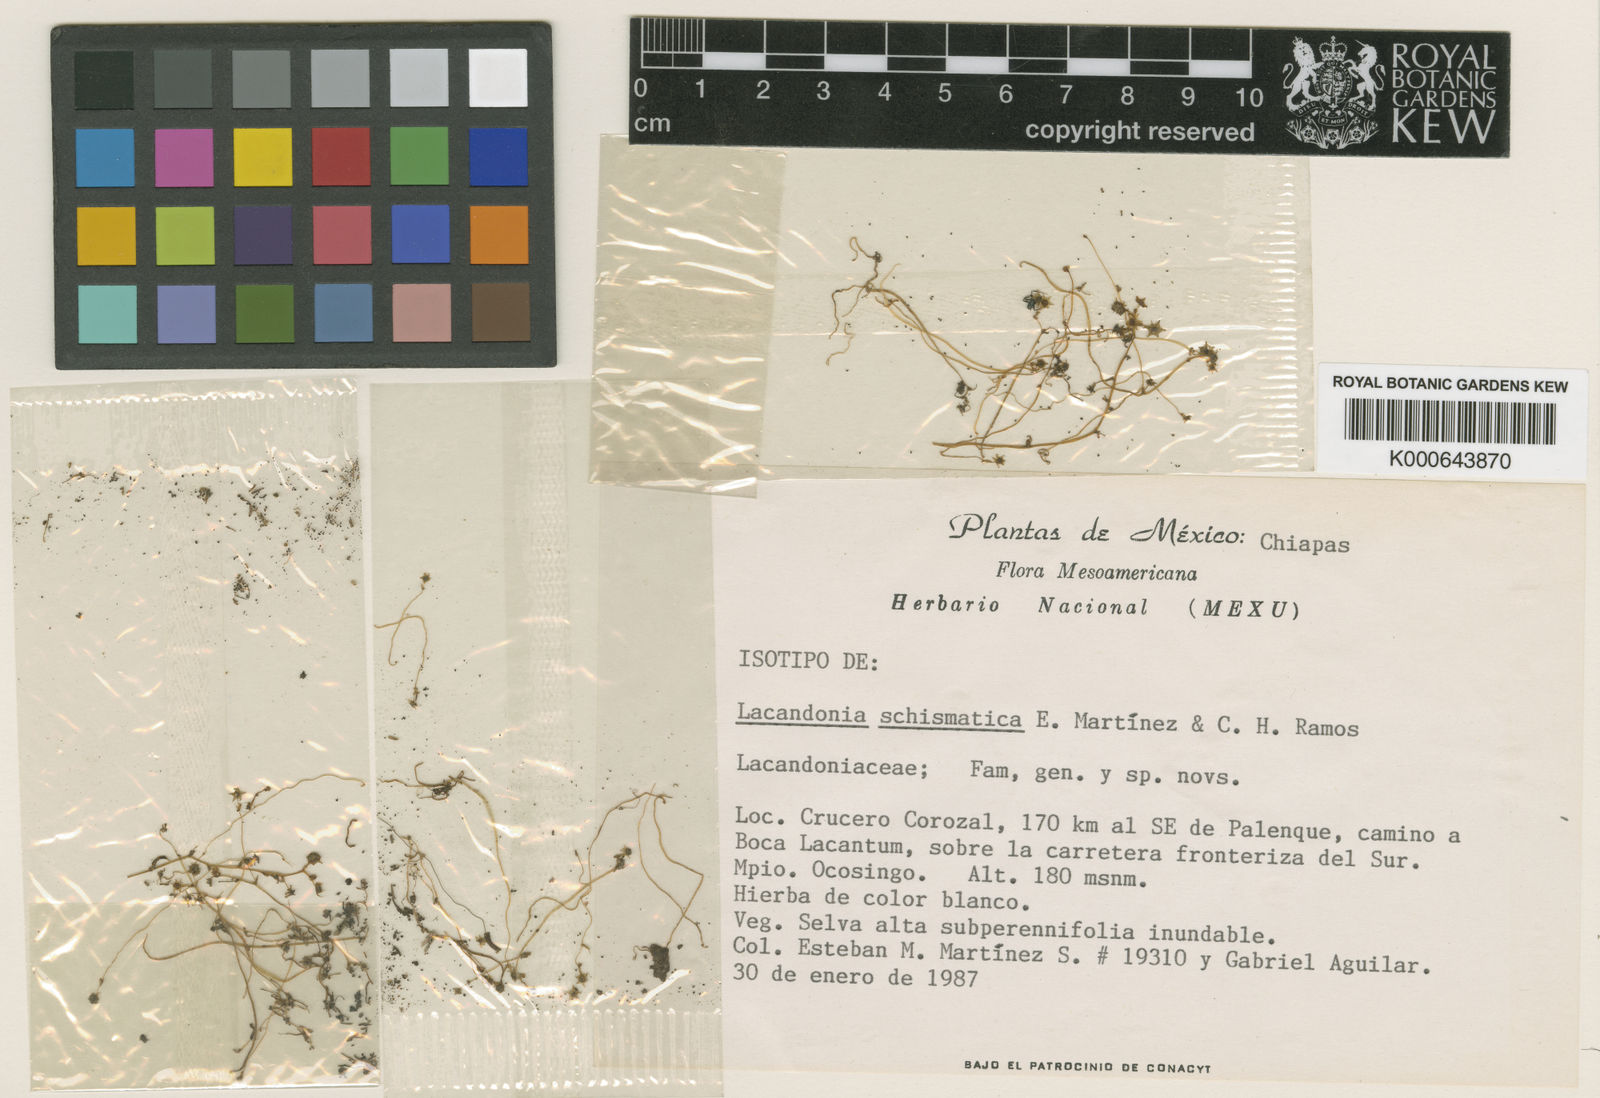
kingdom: Plantae
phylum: Tracheophyta
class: Liliopsida
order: Pandanales
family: Triuridaceae
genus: Lacandonia
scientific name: Lacandonia
